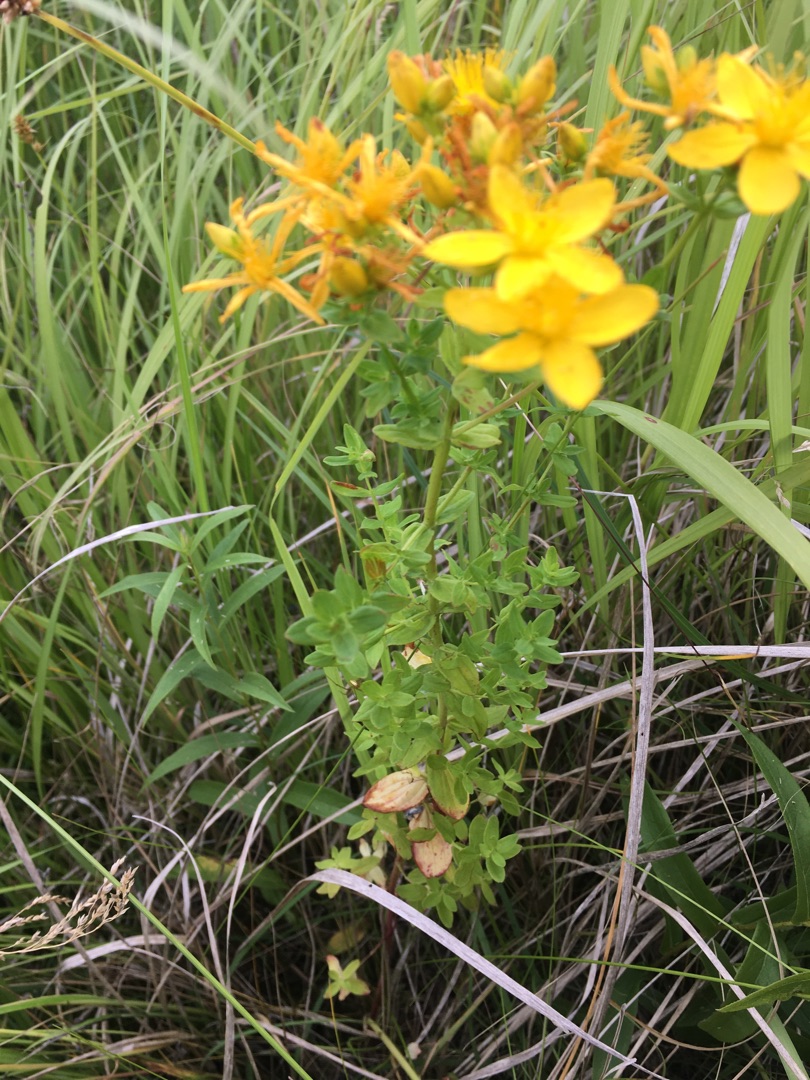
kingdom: Plantae
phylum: Tracheophyta
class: Magnoliopsida
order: Malpighiales
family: Hypericaceae
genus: Hypericum
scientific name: Hypericum perforatum
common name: Prikbladet perikon
